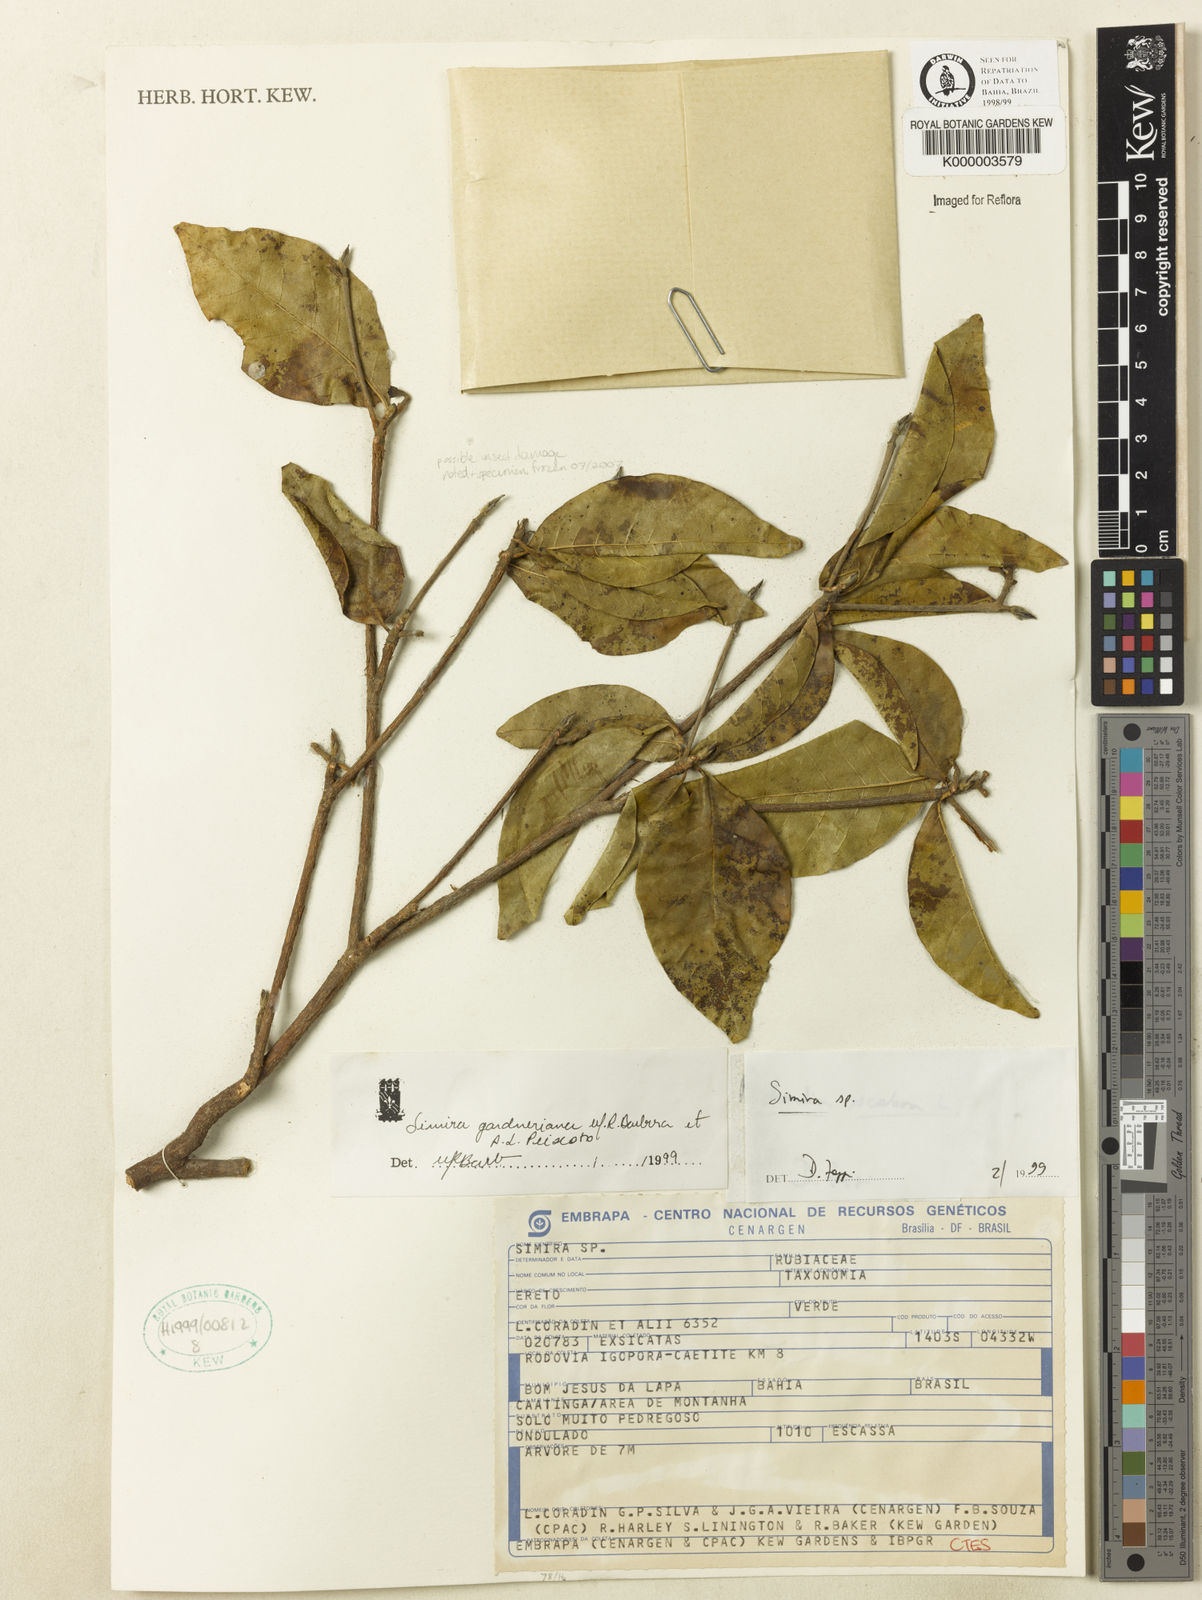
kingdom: Plantae
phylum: Tracheophyta
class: Magnoliopsida
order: Gentianales
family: Rubiaceae
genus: Simira
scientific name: Simira
